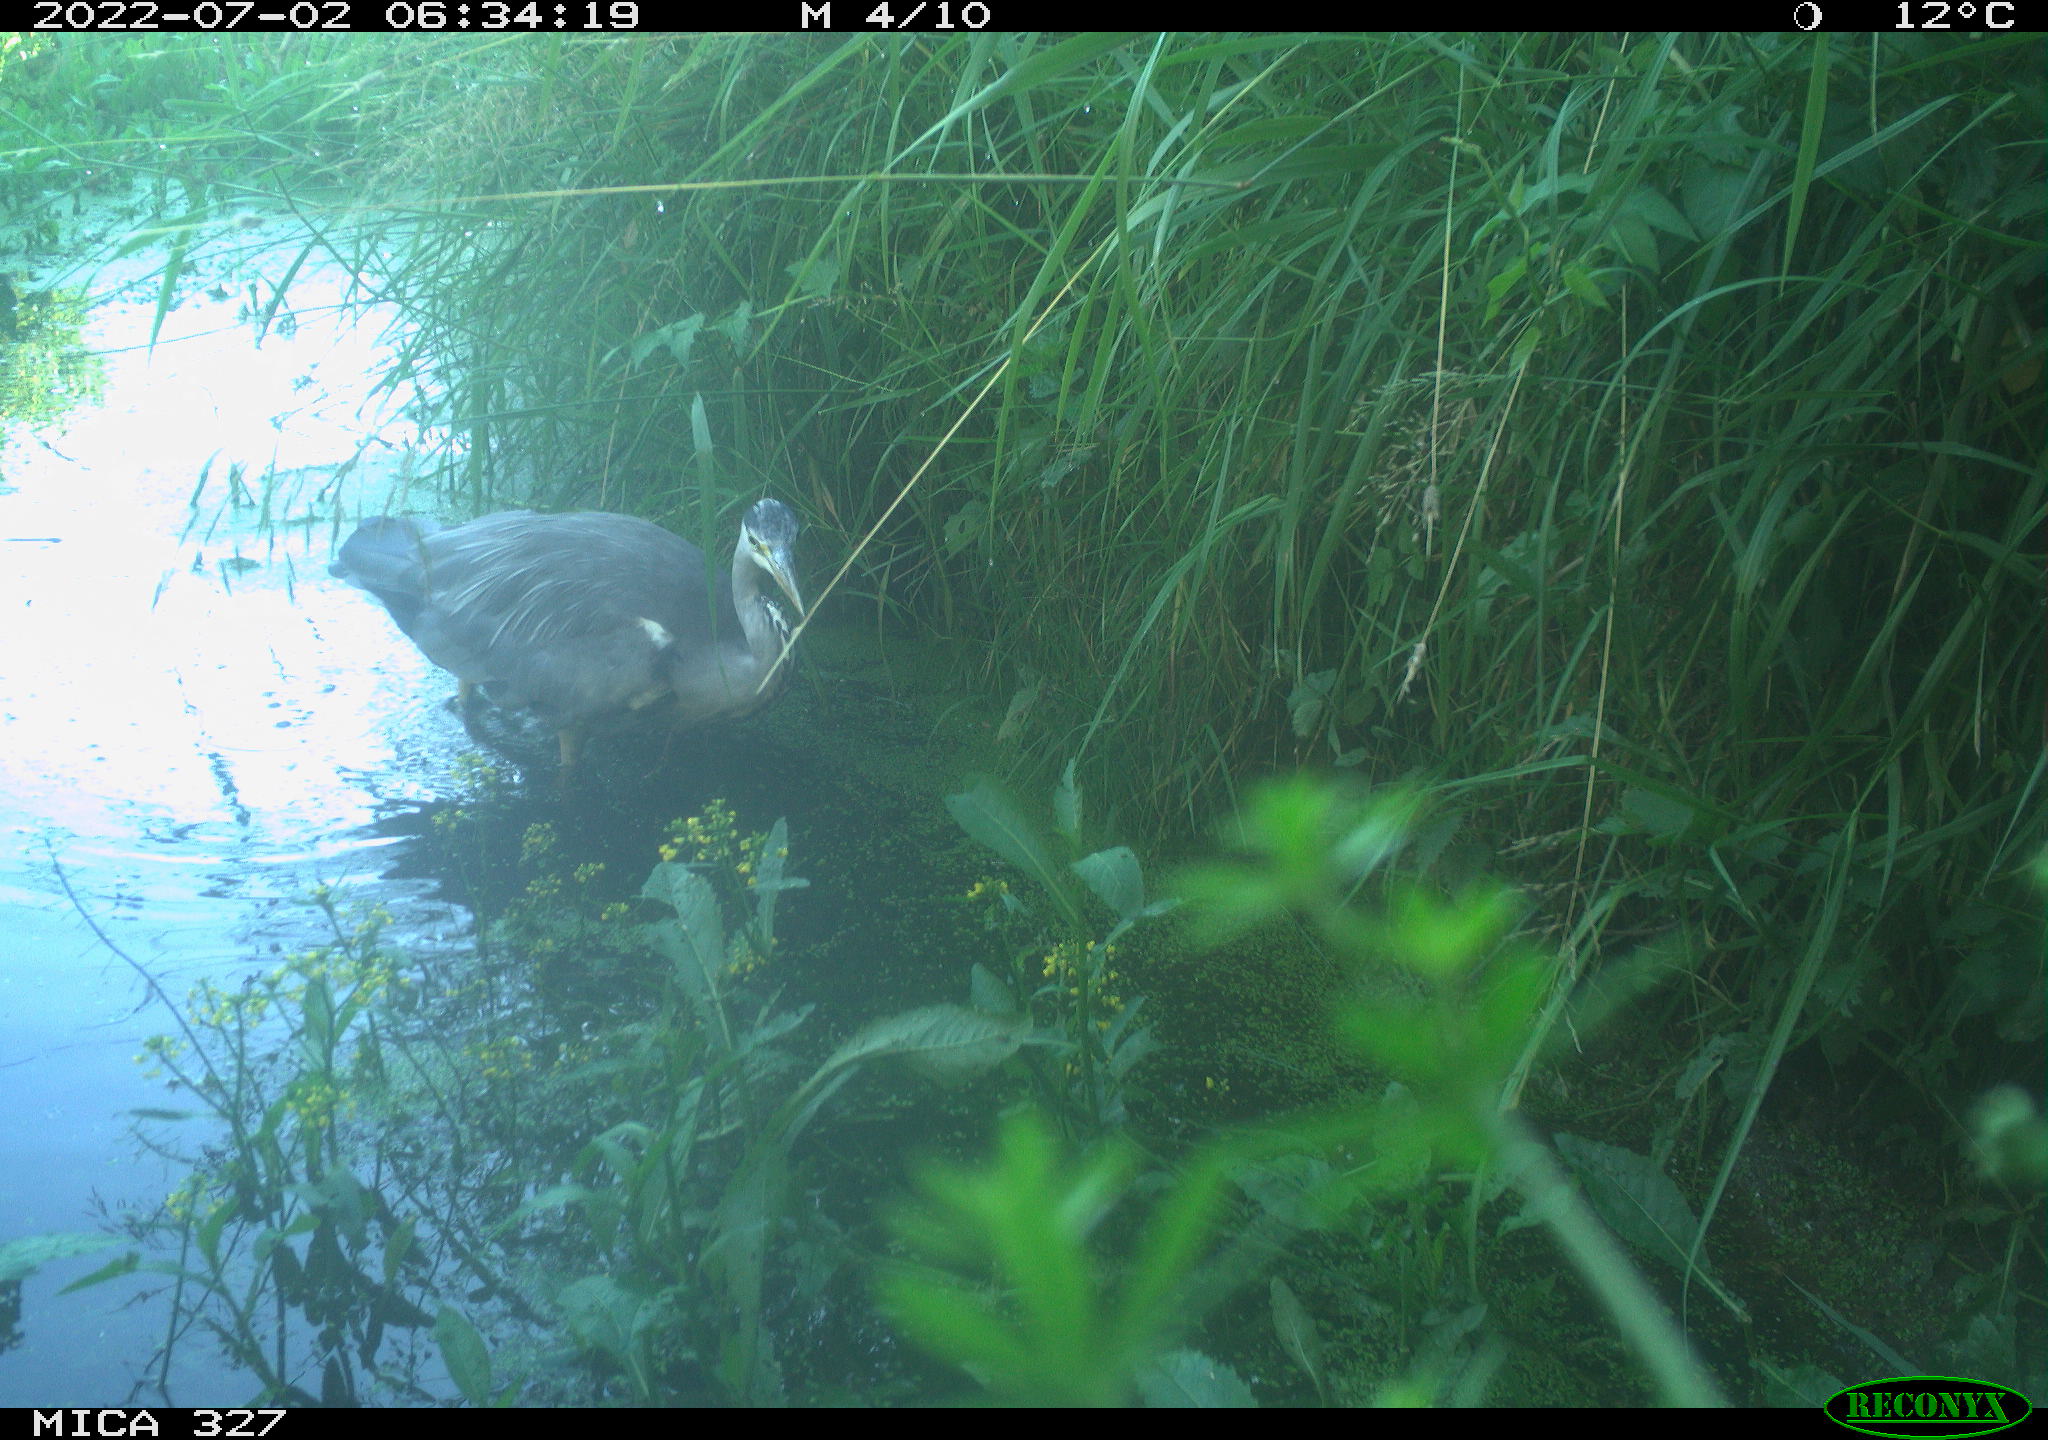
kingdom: Animalia
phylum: Chordata
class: Aves
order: Pelecaniformes
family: Ardeidae
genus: Ardea
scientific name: Ardea cinerea
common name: Grey heron
